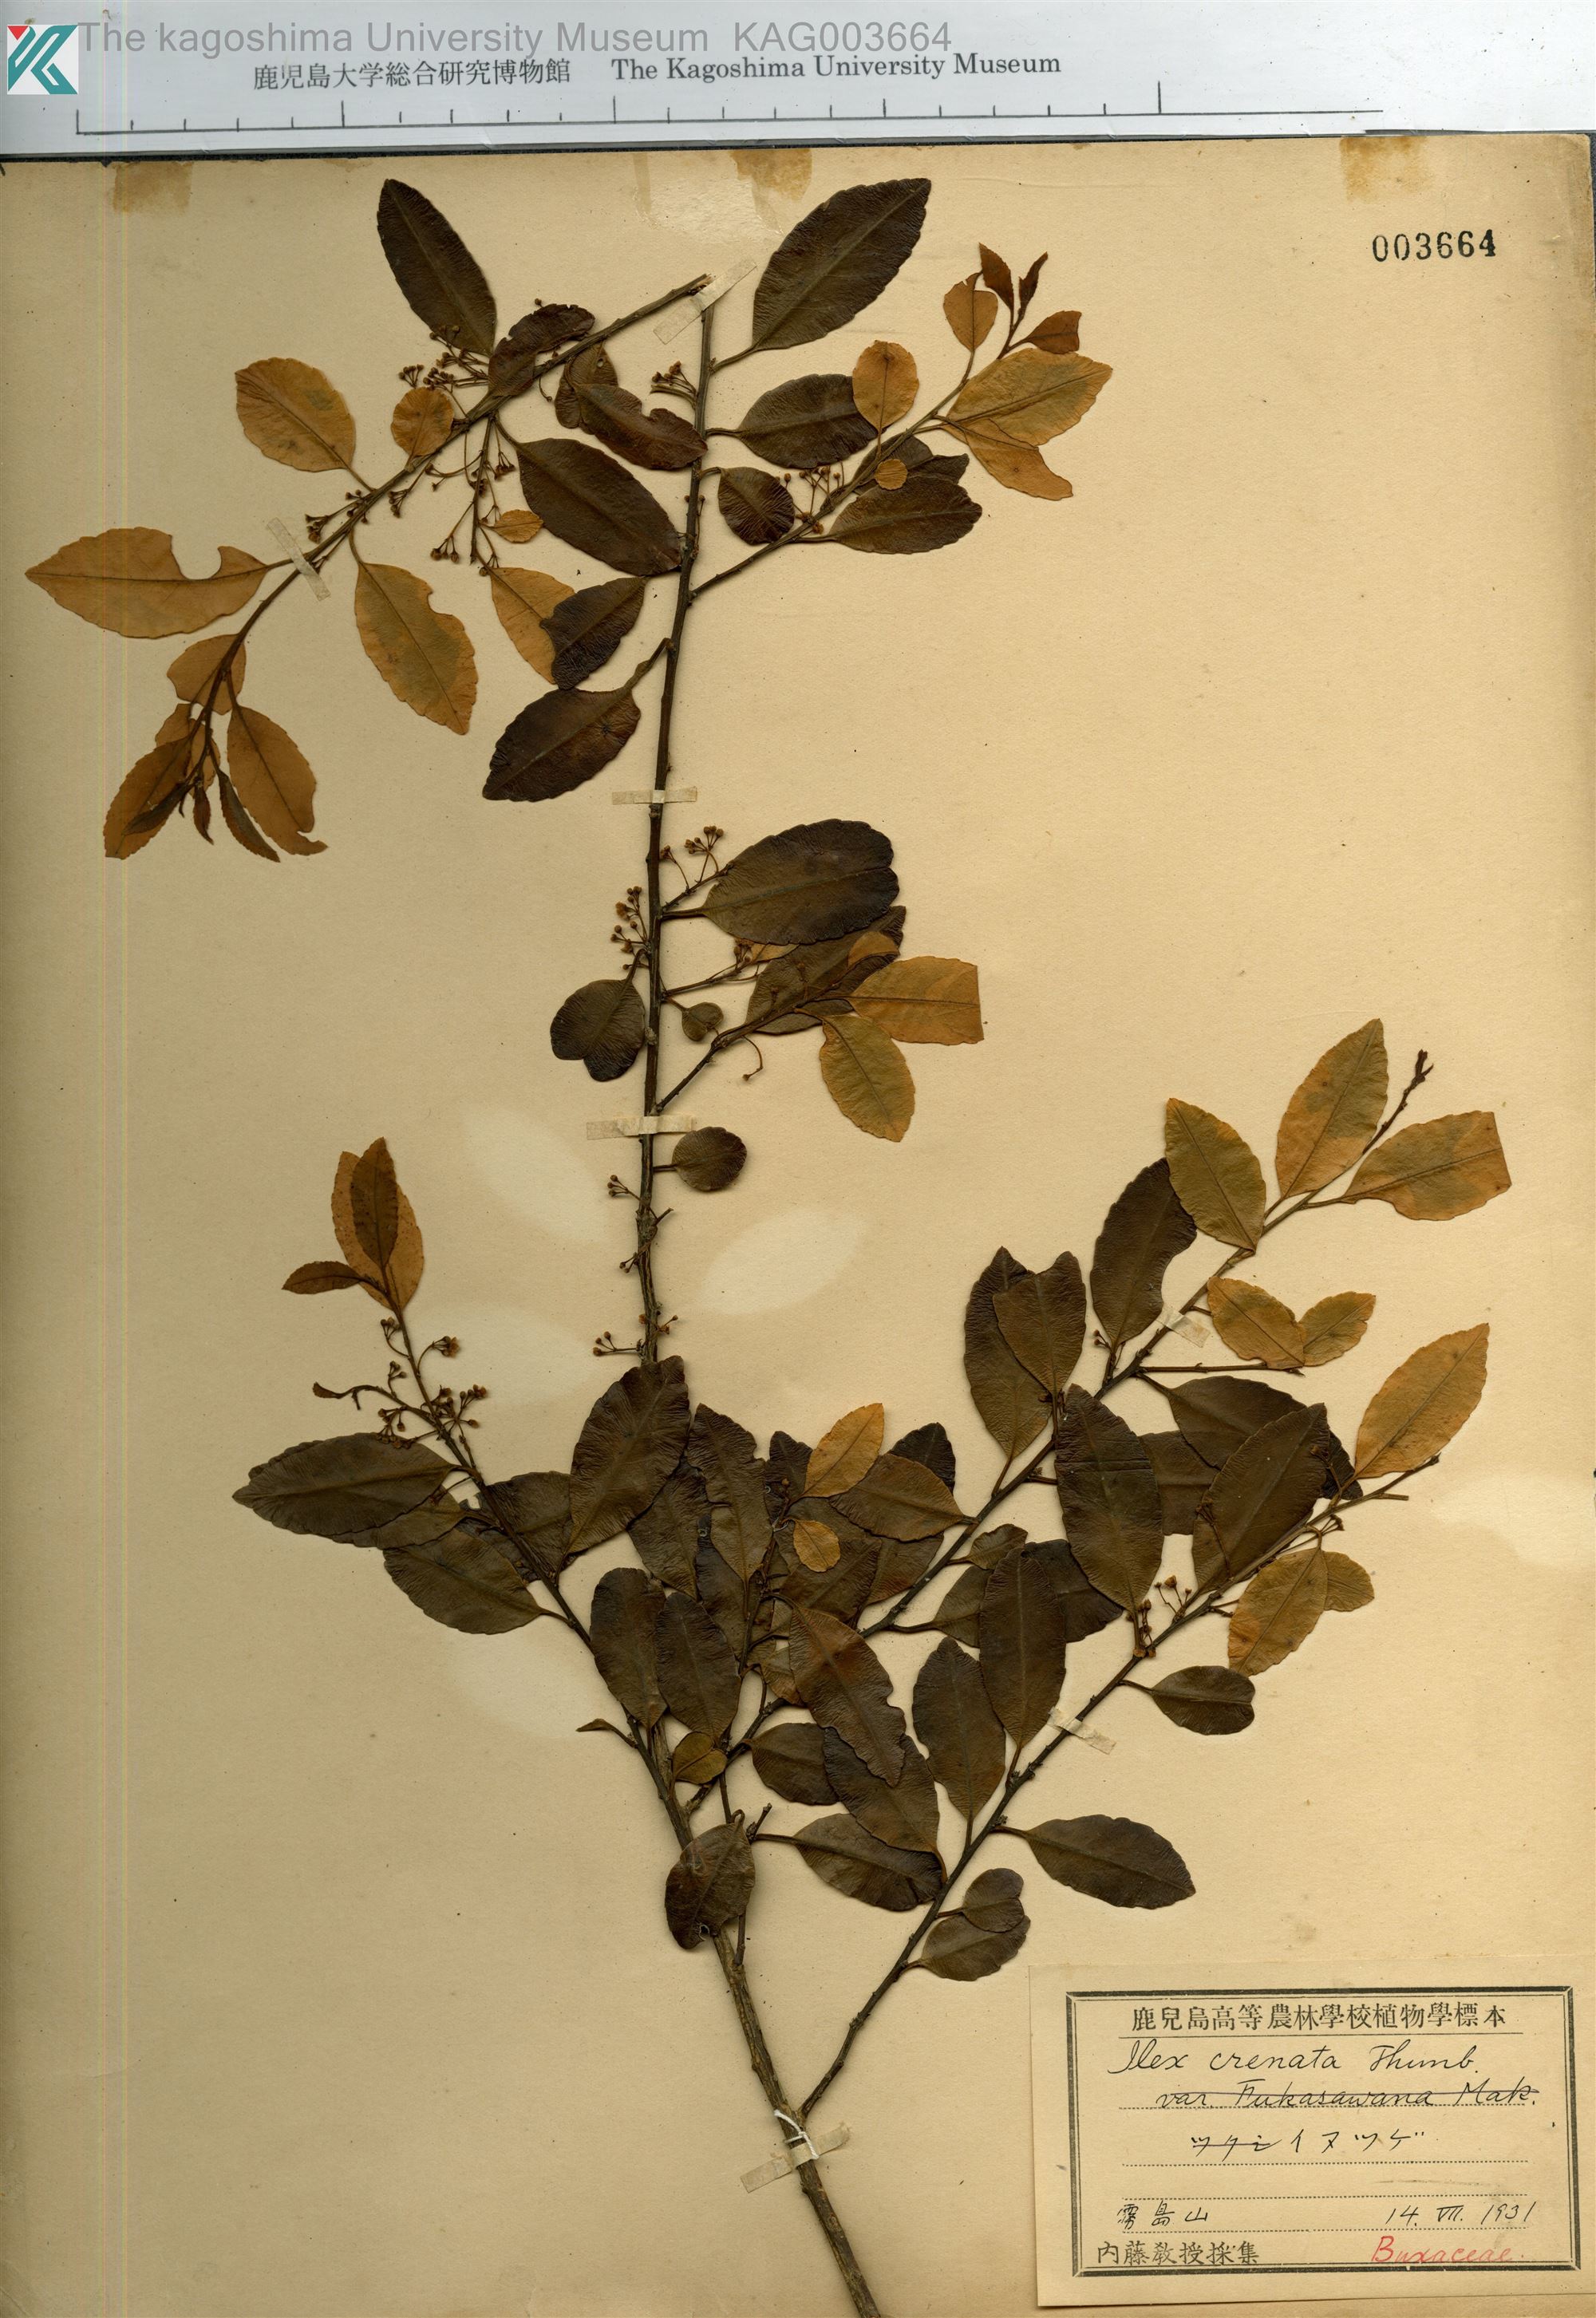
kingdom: Plantae
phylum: Tracheophyta
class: Magnoliopsida
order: Aquifoliales
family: Aquifoliaceae
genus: Ilex
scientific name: Ilex crenata
